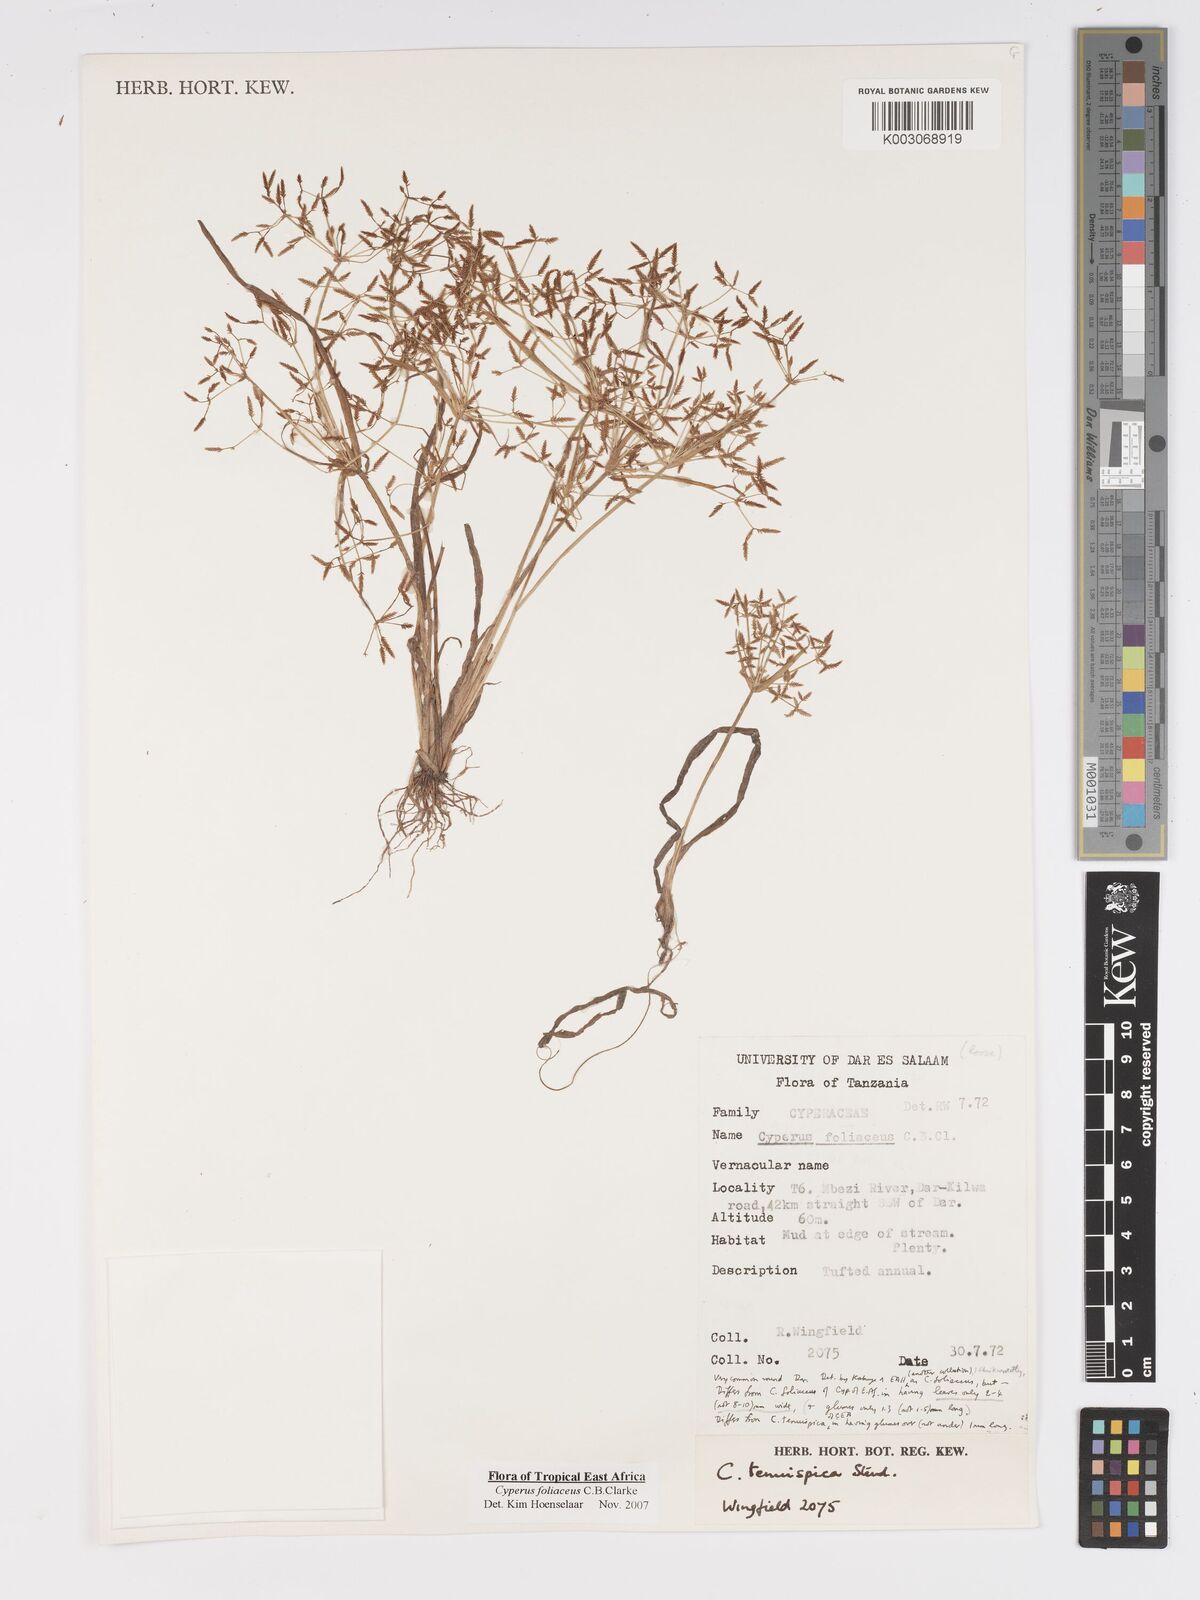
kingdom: Plantae
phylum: Tracheophyta
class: Liliopsida
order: Poales
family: Cyperaceae
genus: Cyperus
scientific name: Cyperus foliaceus
